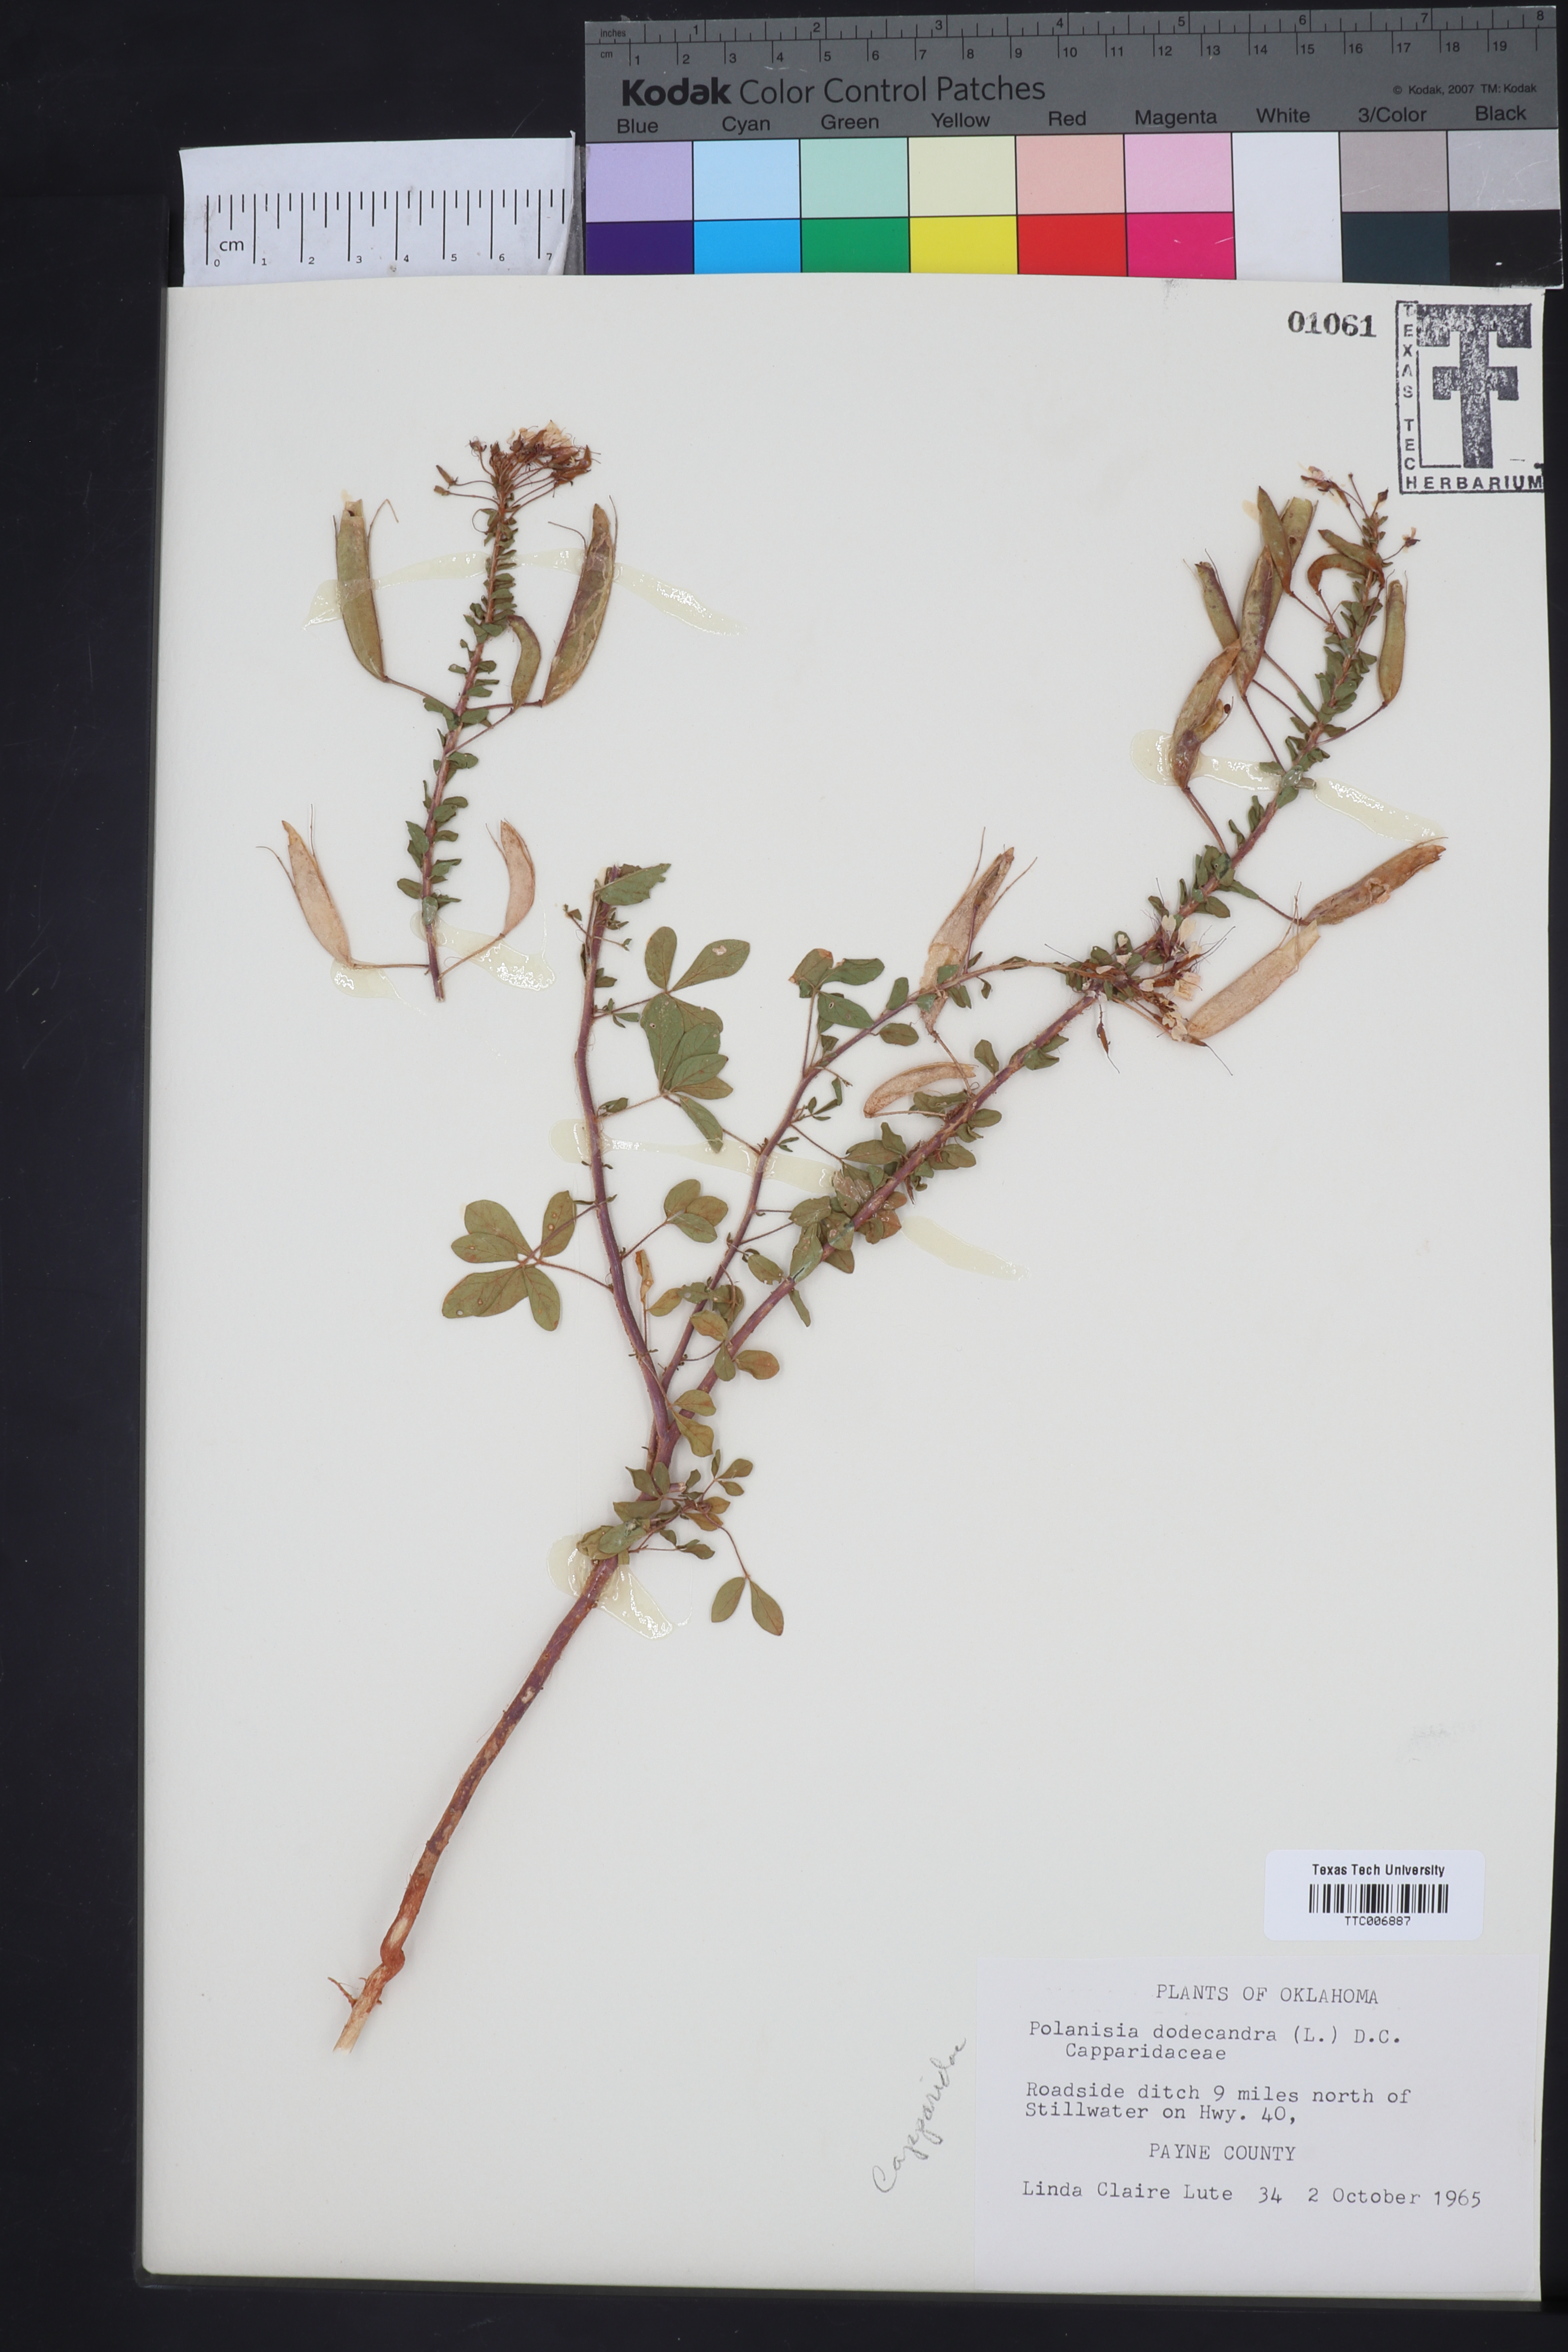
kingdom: Plantae
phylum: Tracheophyta
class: Magnoliopsida
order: Brassicales
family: Cleomaceae
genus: Polanisia
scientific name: Polanisia dodecandra
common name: Clammyweed
